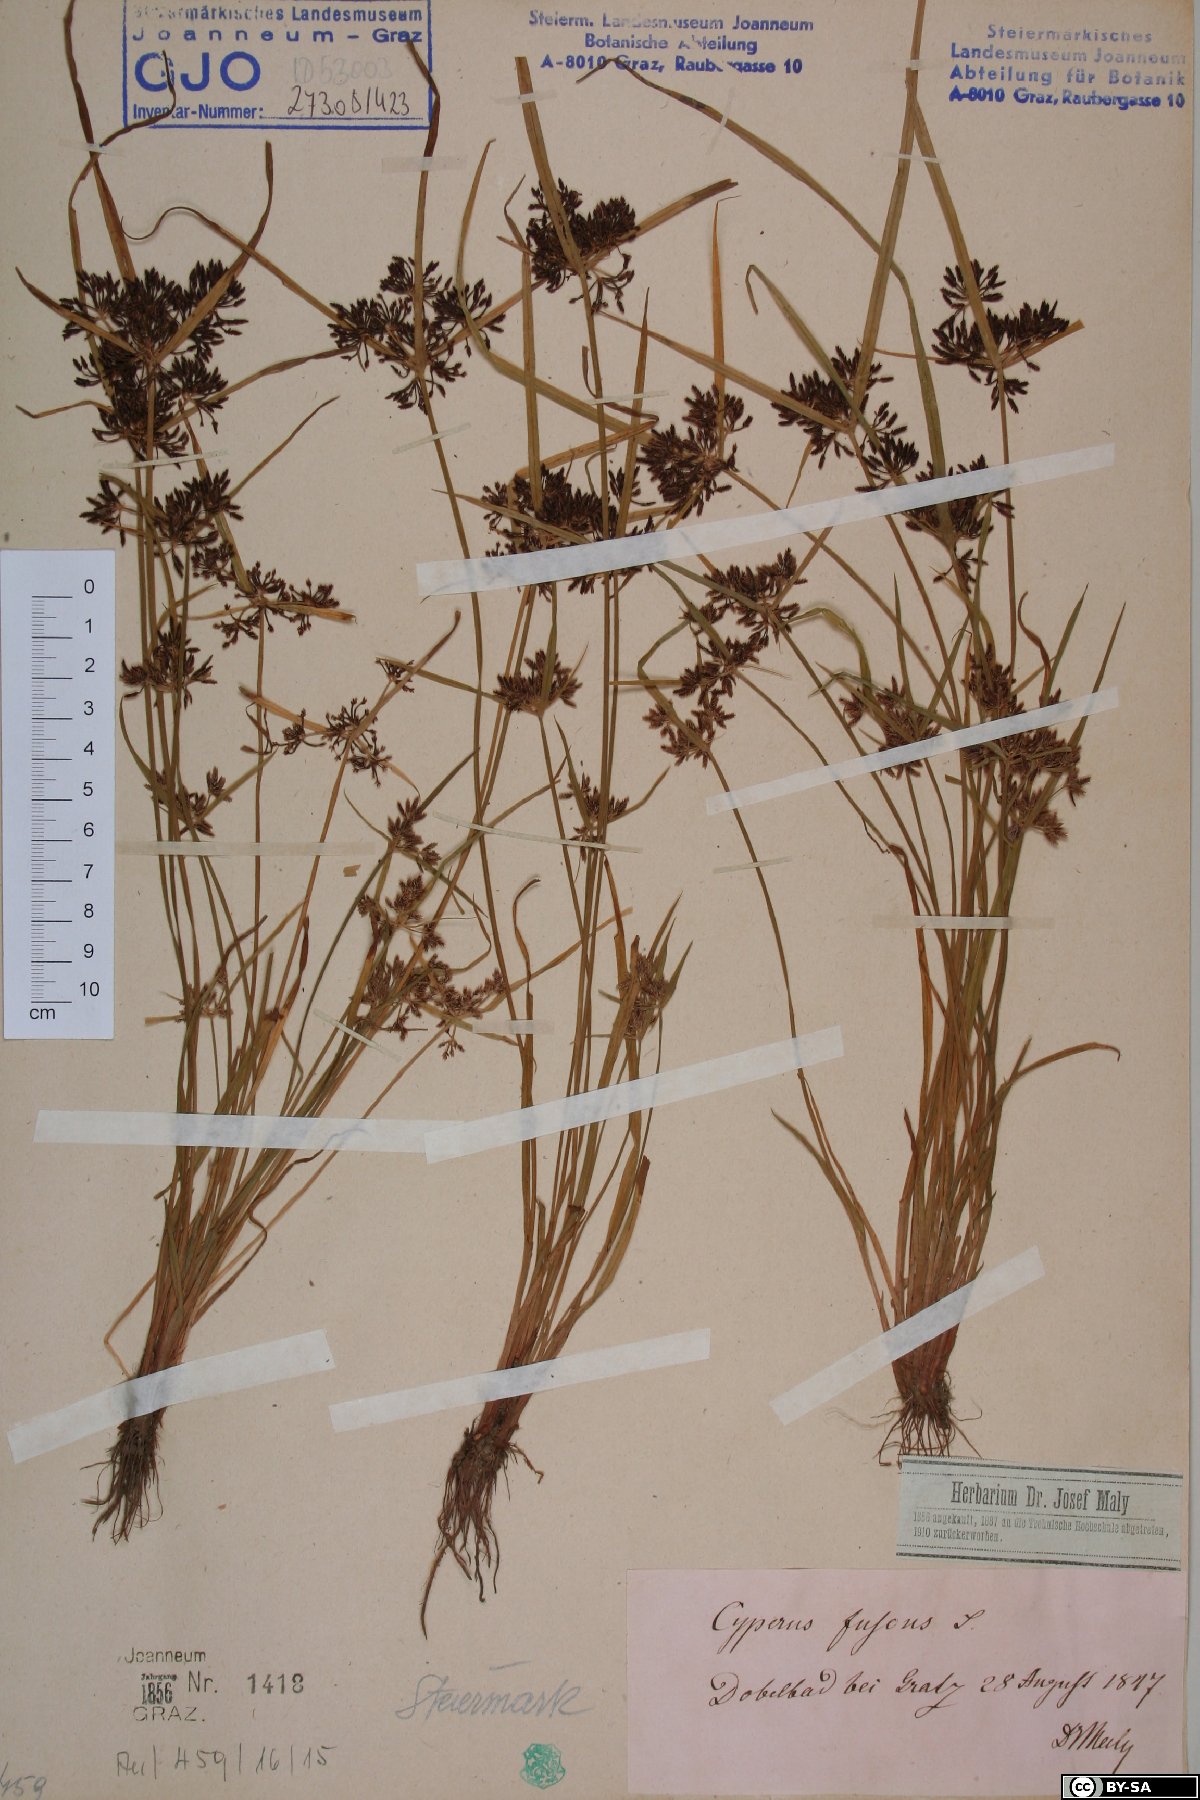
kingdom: Plantae
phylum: Tracheophyta
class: Liliopsida
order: Poales
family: Cyperaceae
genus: Cyperus
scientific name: Cyperus fuscus
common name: Brown galingale
